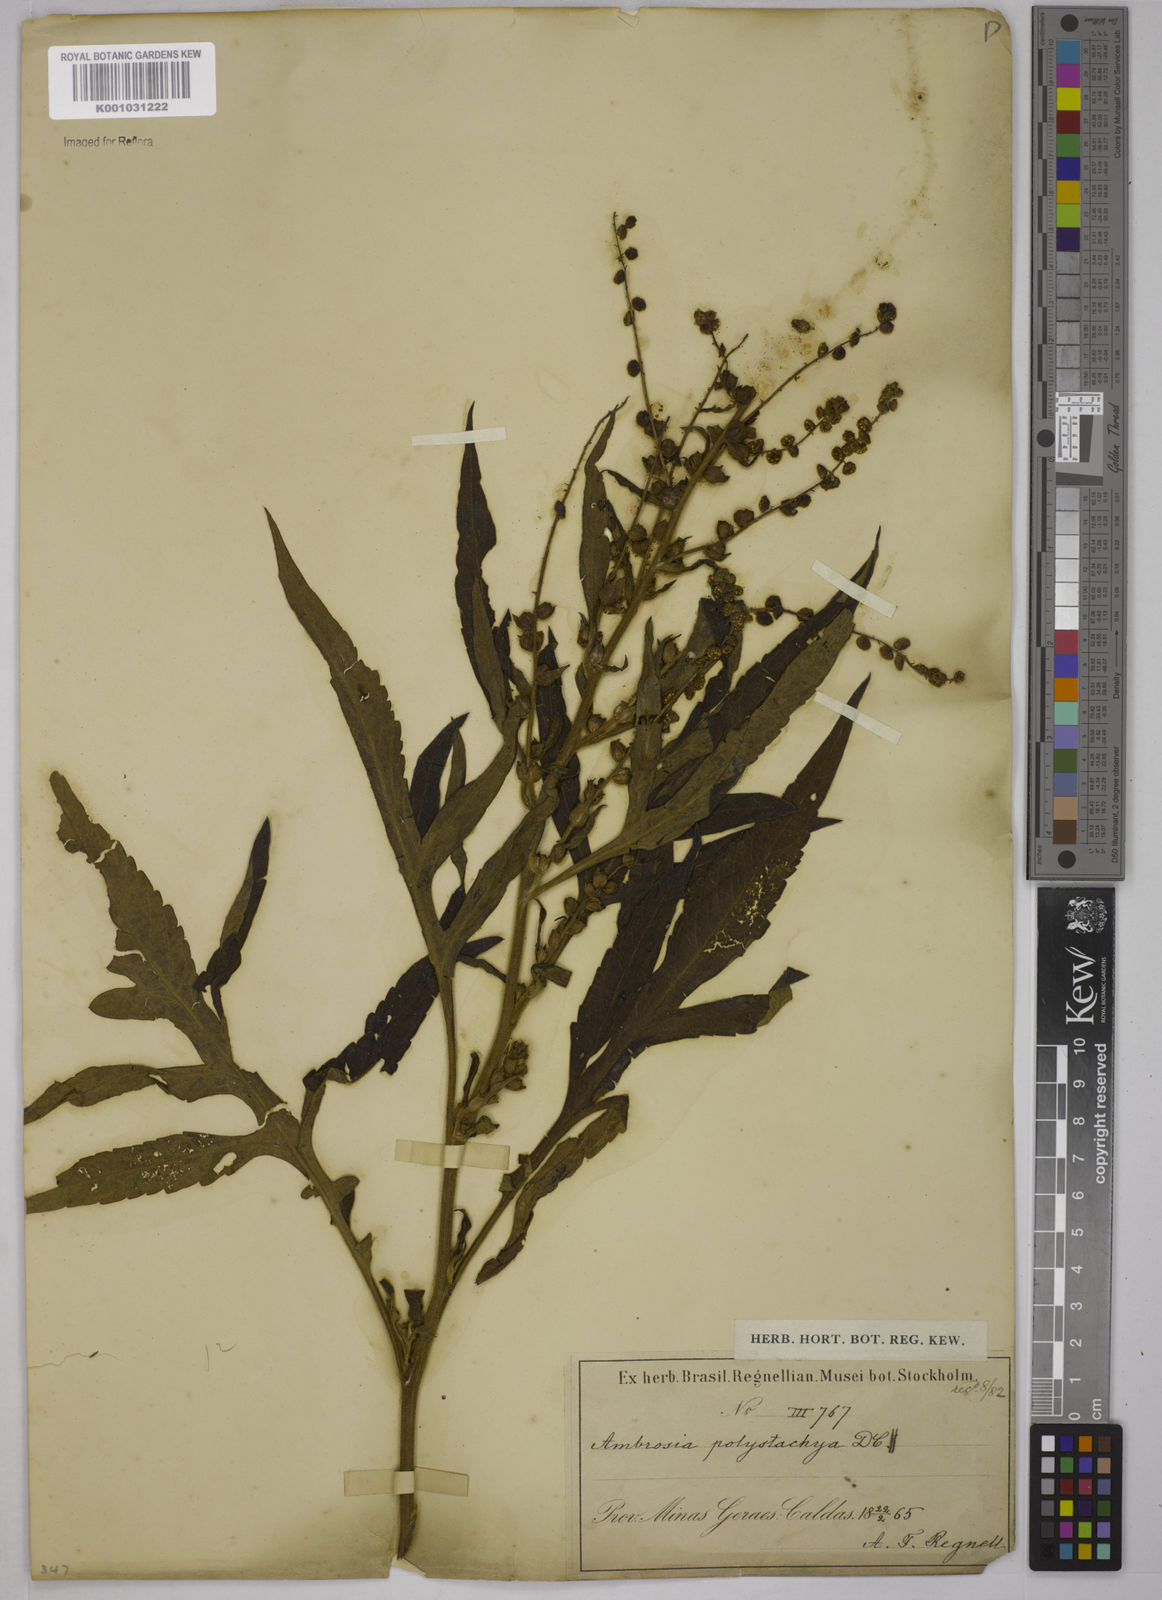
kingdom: Plantae
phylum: Tracheophyta
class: Magnoliopsida
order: Asterales
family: Asteraceae
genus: Ambrosia
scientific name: Ambrosia polystachya
